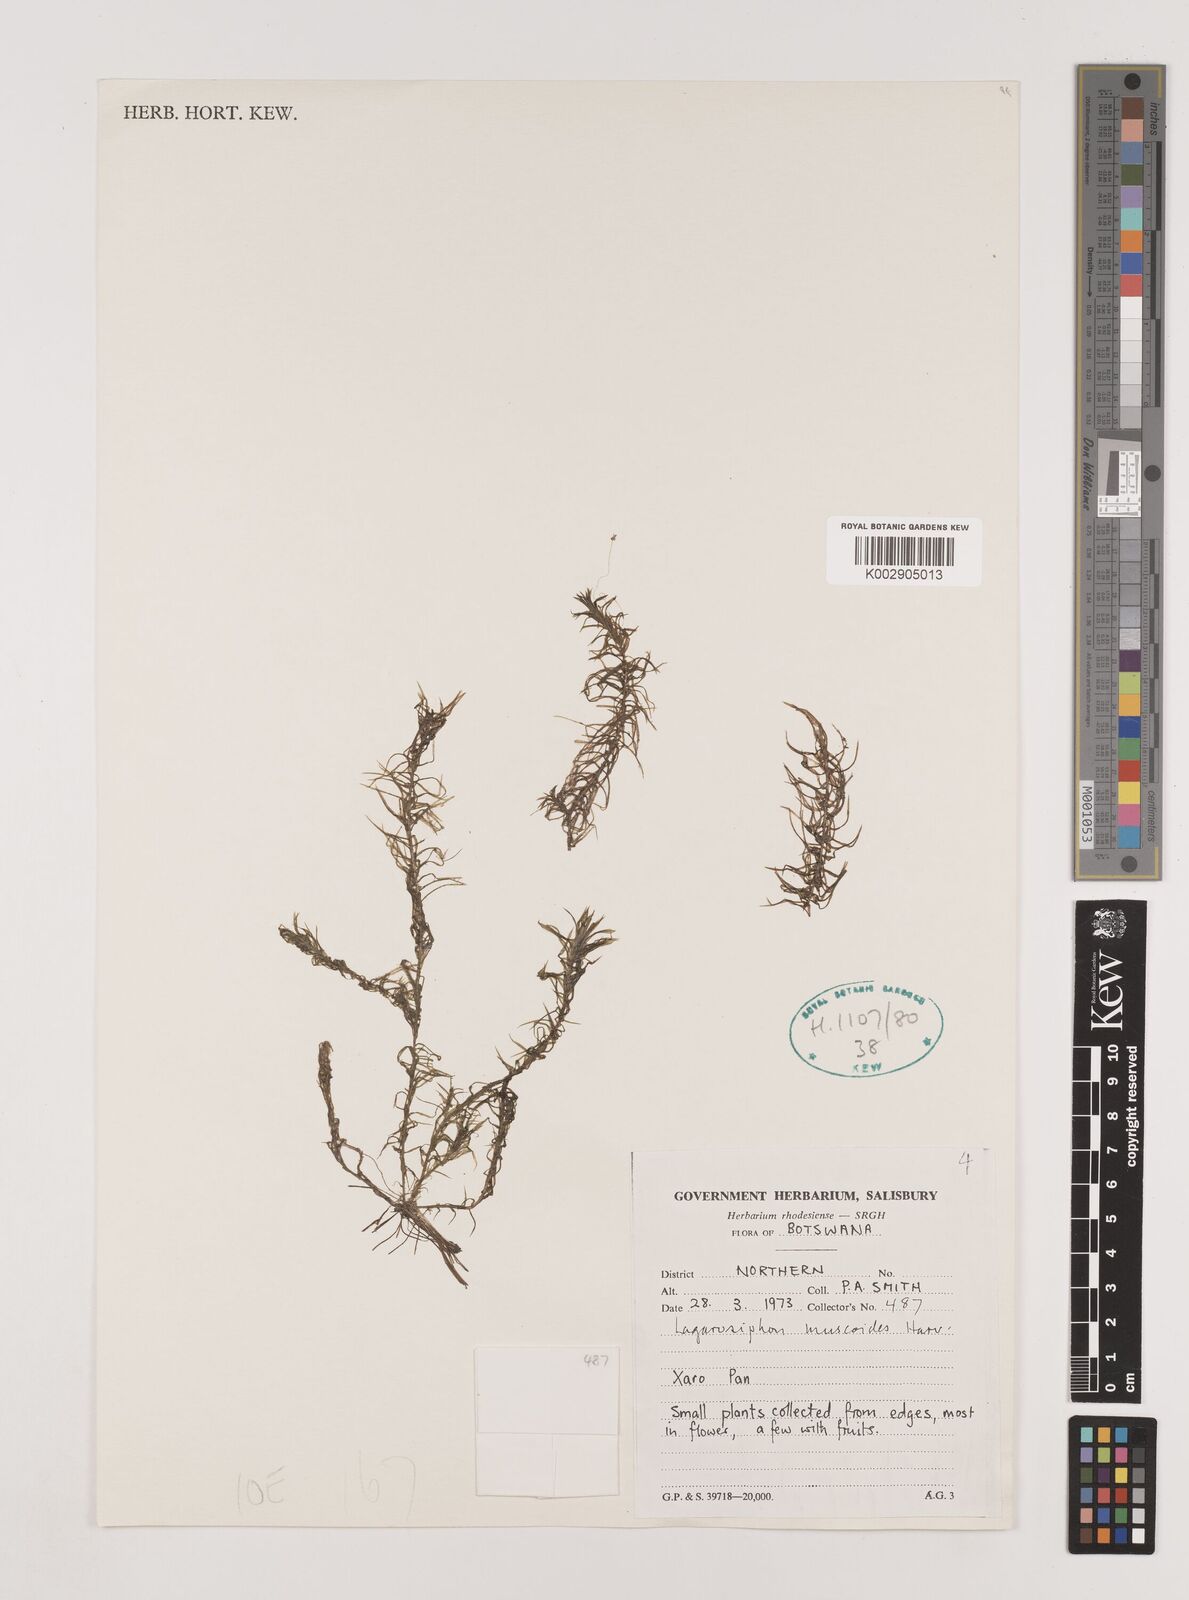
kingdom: Plantae
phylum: Tracheophyta
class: Liliopsida
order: Alismatales
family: Hydrocharitaceae
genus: Lagarosiphon
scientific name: Lagarosiphon muscoides
